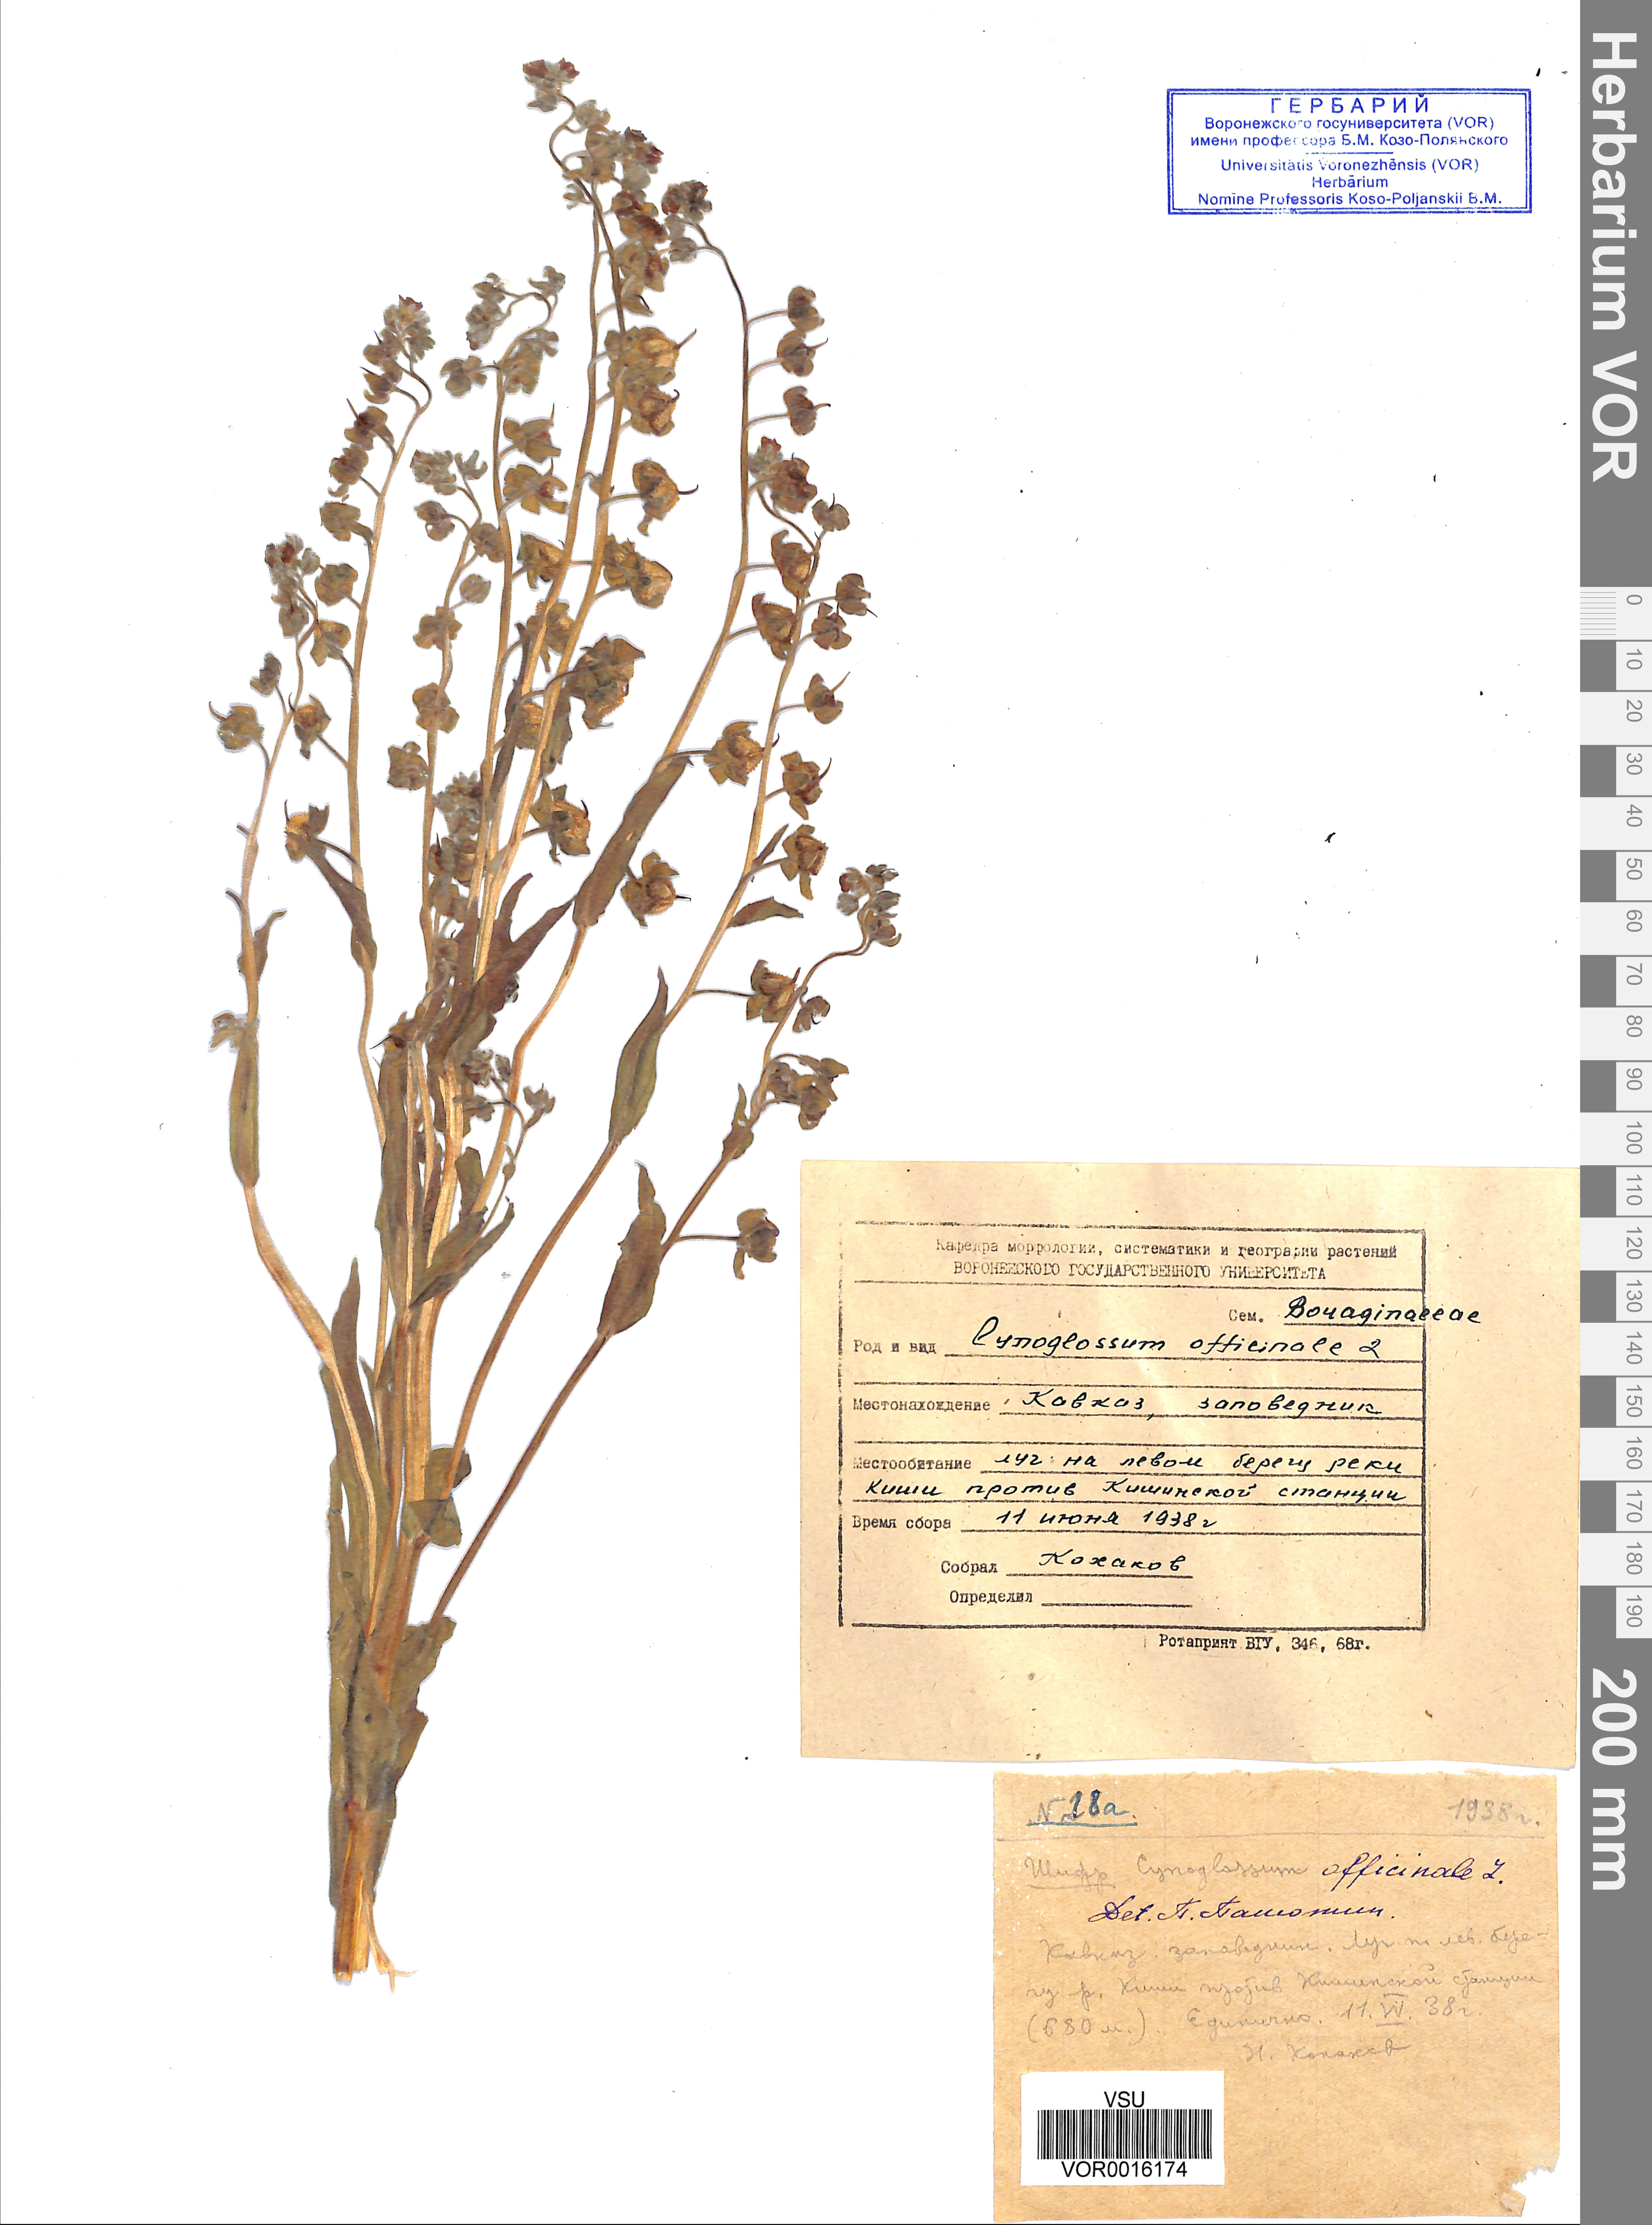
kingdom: Plantae
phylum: Tracheophyta
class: Magnoliopsida
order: Boraginales
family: Boraginaceae
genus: Cynoglossum
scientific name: Cynoglossum officinale
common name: Hound's-tongue
